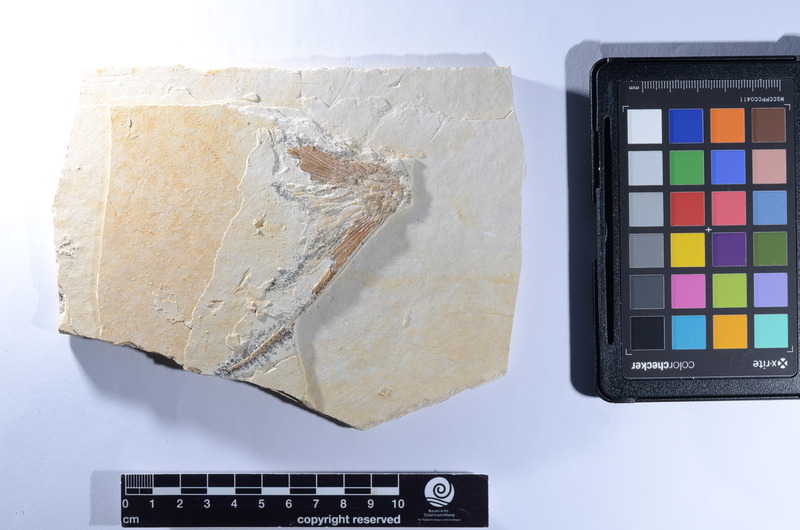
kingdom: Animalia
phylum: Chordata
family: Aspidorhynchidae
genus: Aspidorhynchus
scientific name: Aspidorhynchus
